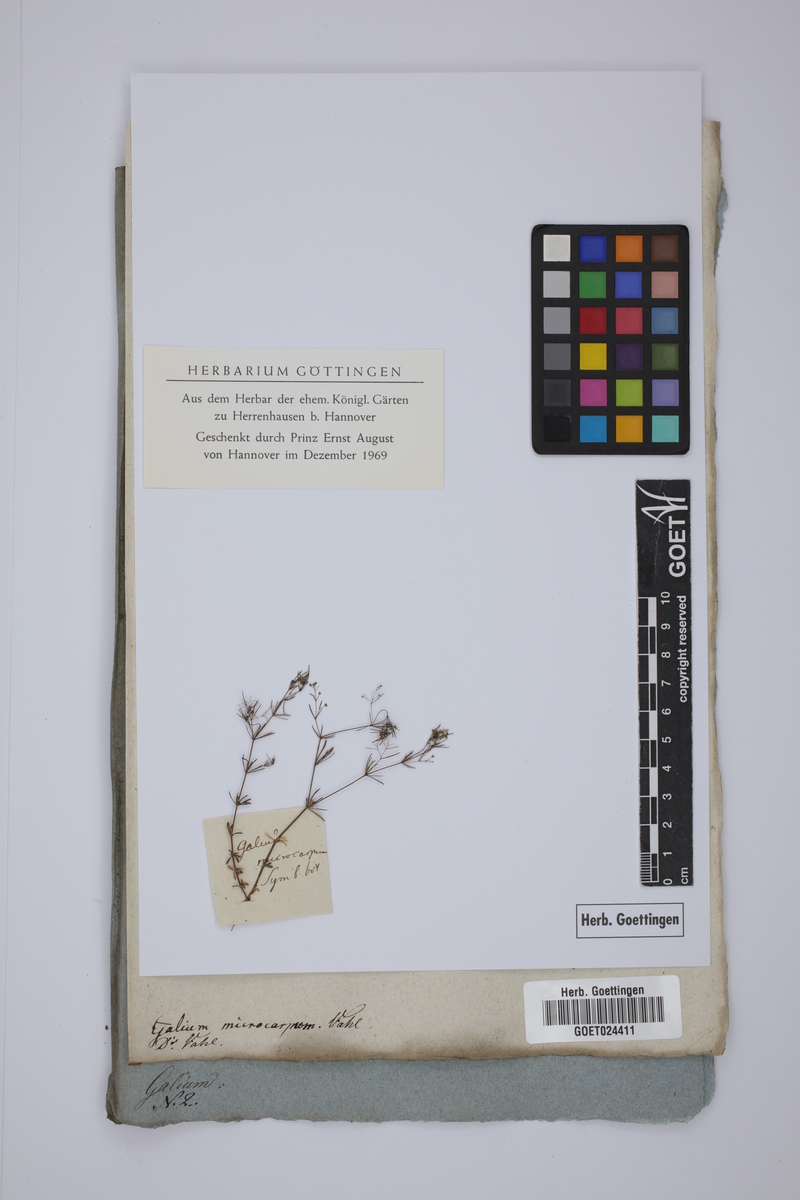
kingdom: Plantae
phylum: Tracheophyta
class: Magnoliopsida
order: Gentianales
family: Rubiaceae
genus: Galium
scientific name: Galium setaceum
